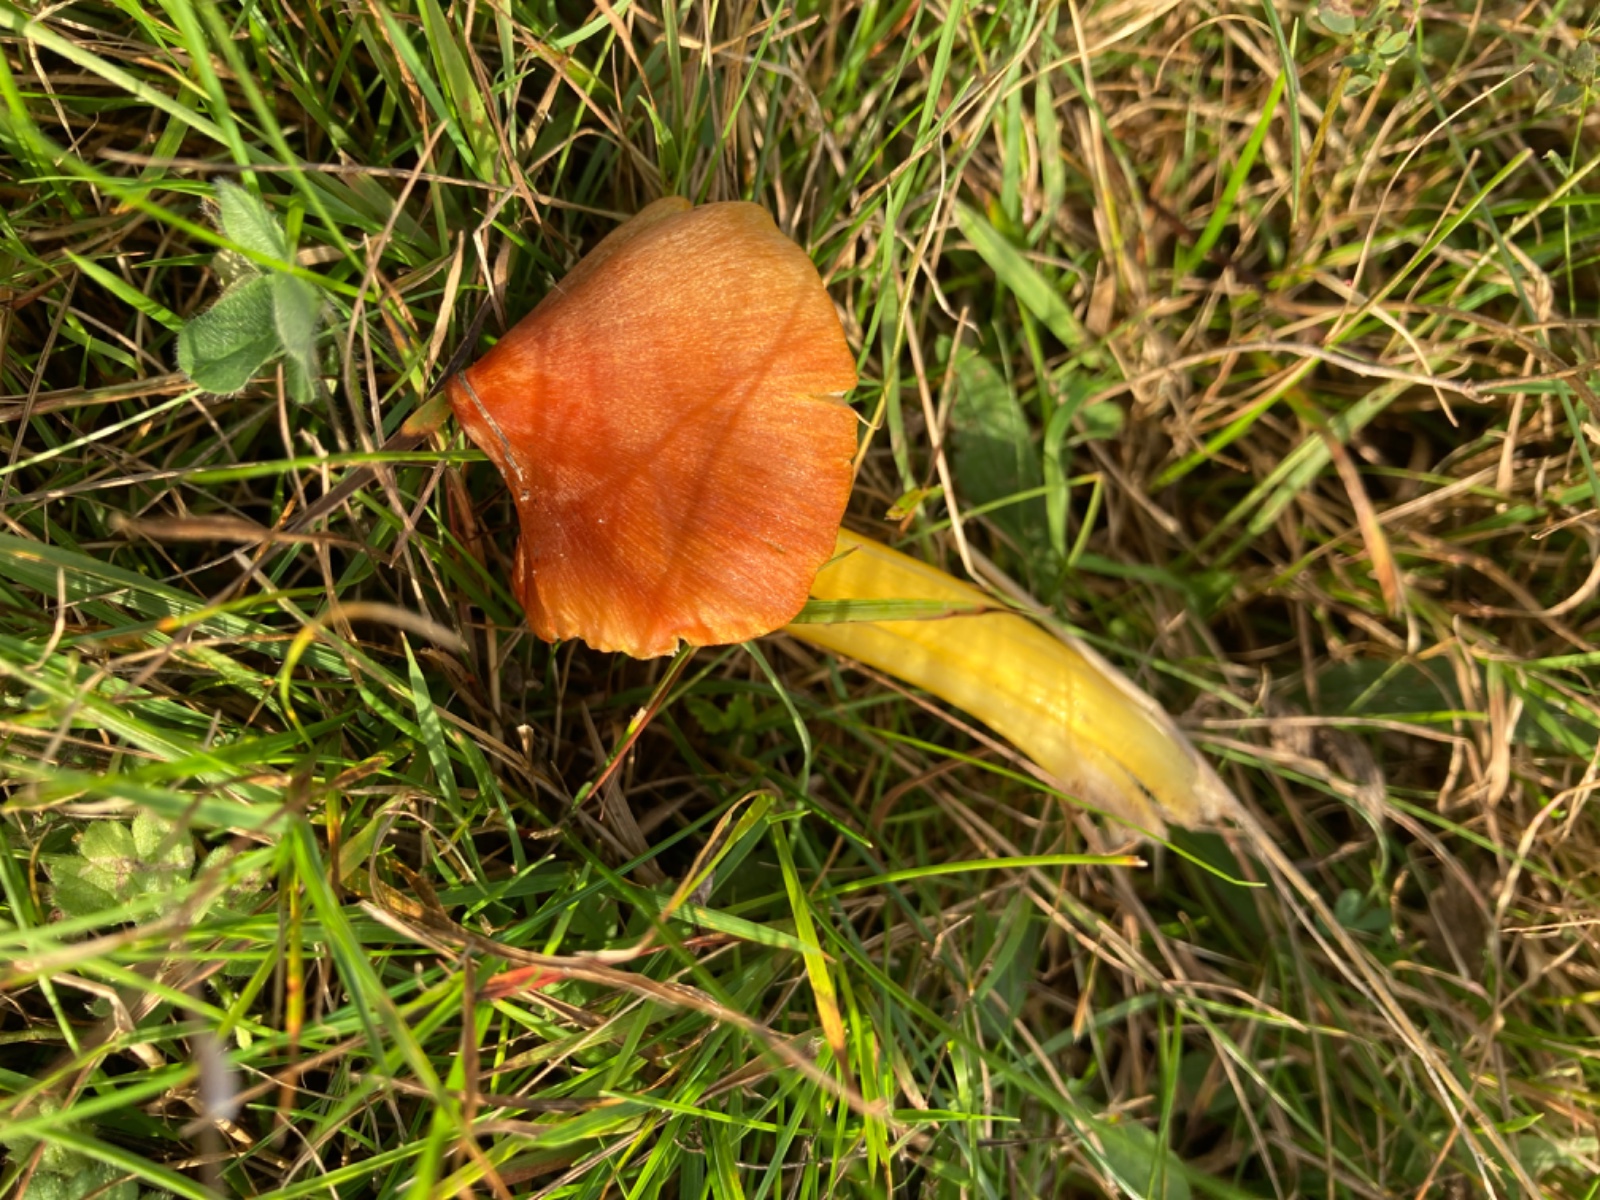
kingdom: Fungi
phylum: Basidiomycota
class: Agaricomycetes
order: Agaricales
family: Hygrophoraceae
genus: Hygrocybe
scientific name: Hygrocybe conica
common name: kegle-vokshat
